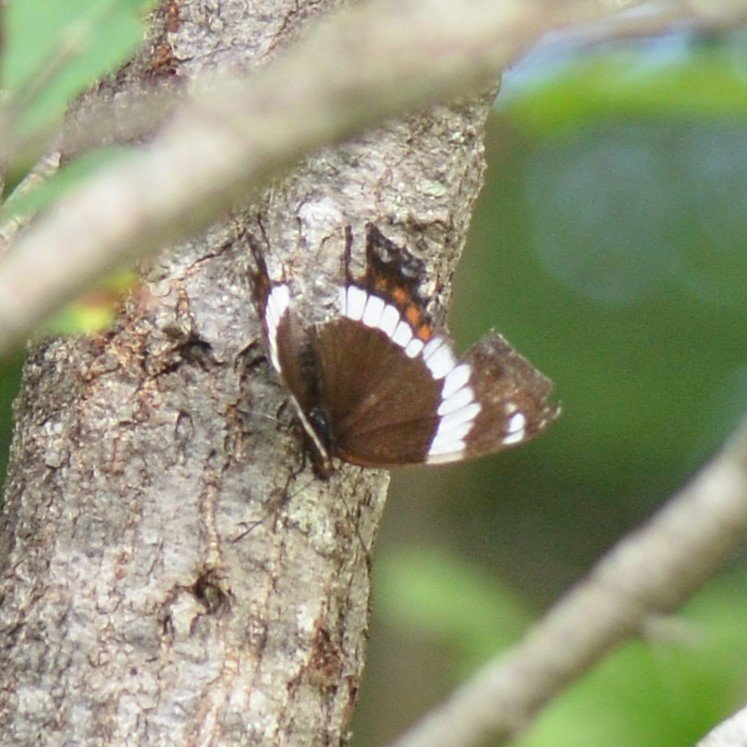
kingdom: Animalia
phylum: Arthropoda
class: Insecta
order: Lepidoptera
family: Nymphalidae
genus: Limenitis
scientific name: Limenitis arthemis
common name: Red-spotted Admiral
